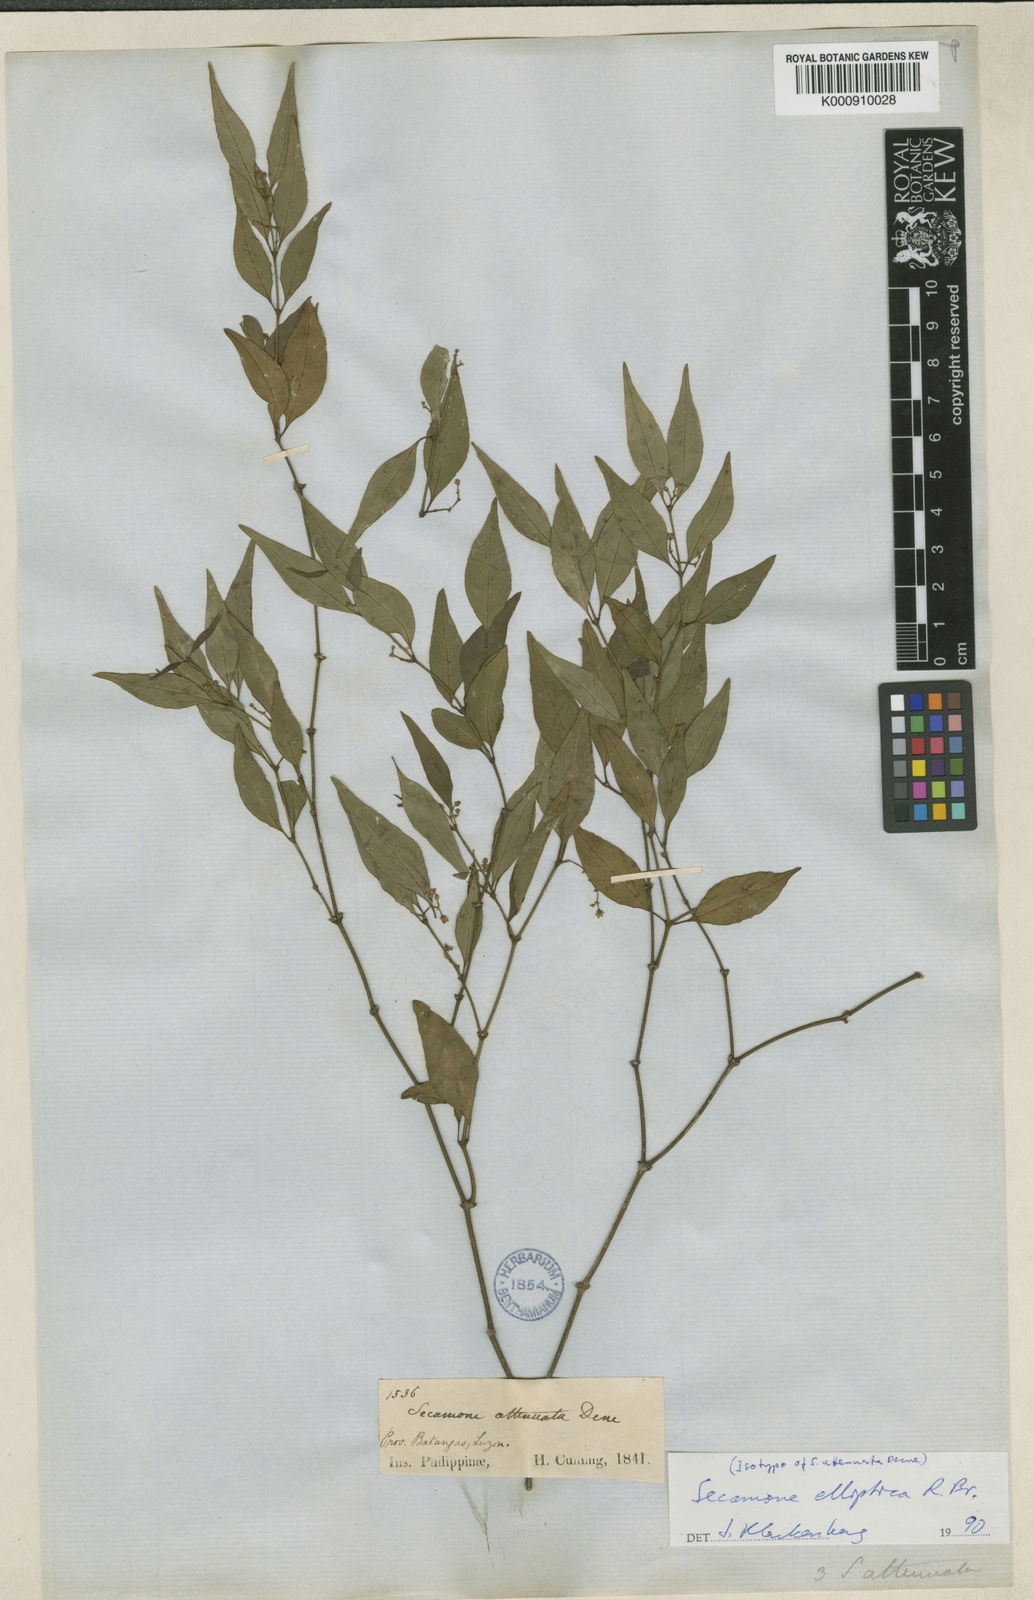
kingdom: Plantae
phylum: Tracheophyta
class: Magnoliopsida
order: Gentianales
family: Apocynaceae
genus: Secamone
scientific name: Secamone elliptica
